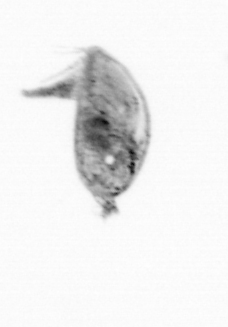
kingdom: Animalia
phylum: Arthropoda
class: Maxillopoda
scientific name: Maxillopoda
